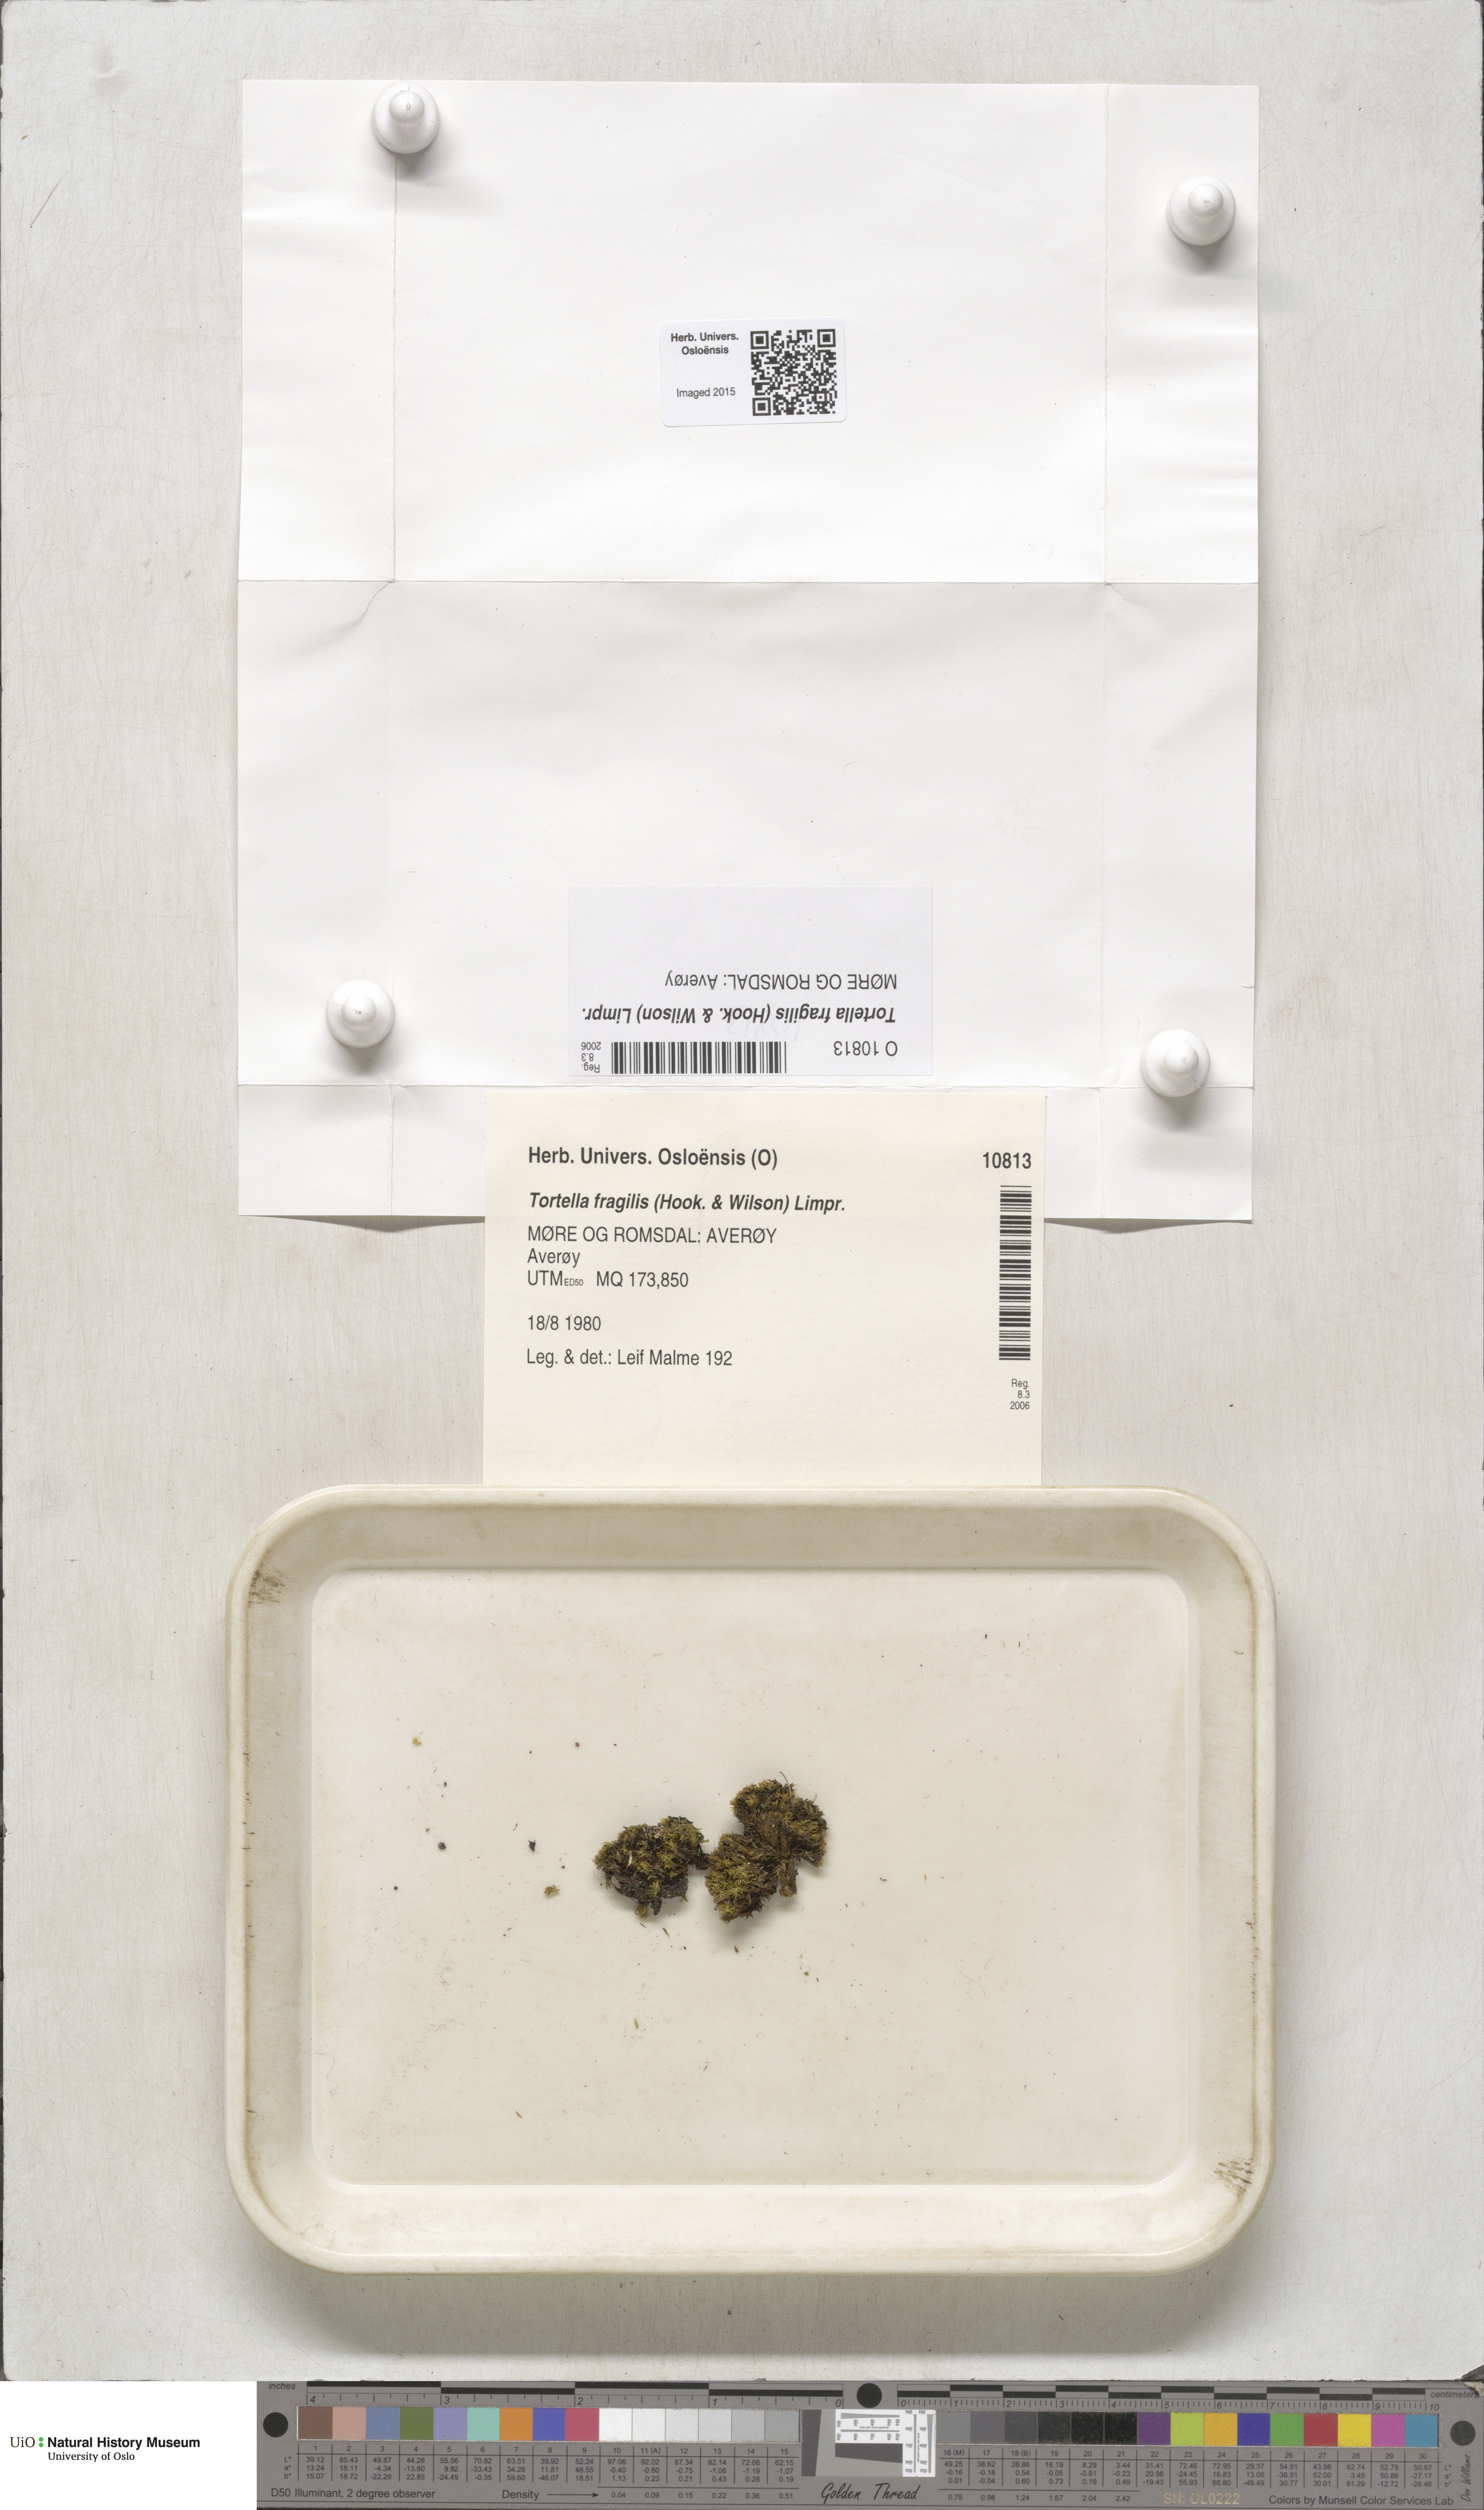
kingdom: Plantae
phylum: Bryophyta
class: Bryopsida
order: Pottiales
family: Pottiaceae
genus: Tortella
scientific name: Tortella fragilis
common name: Fragile twisted moss
